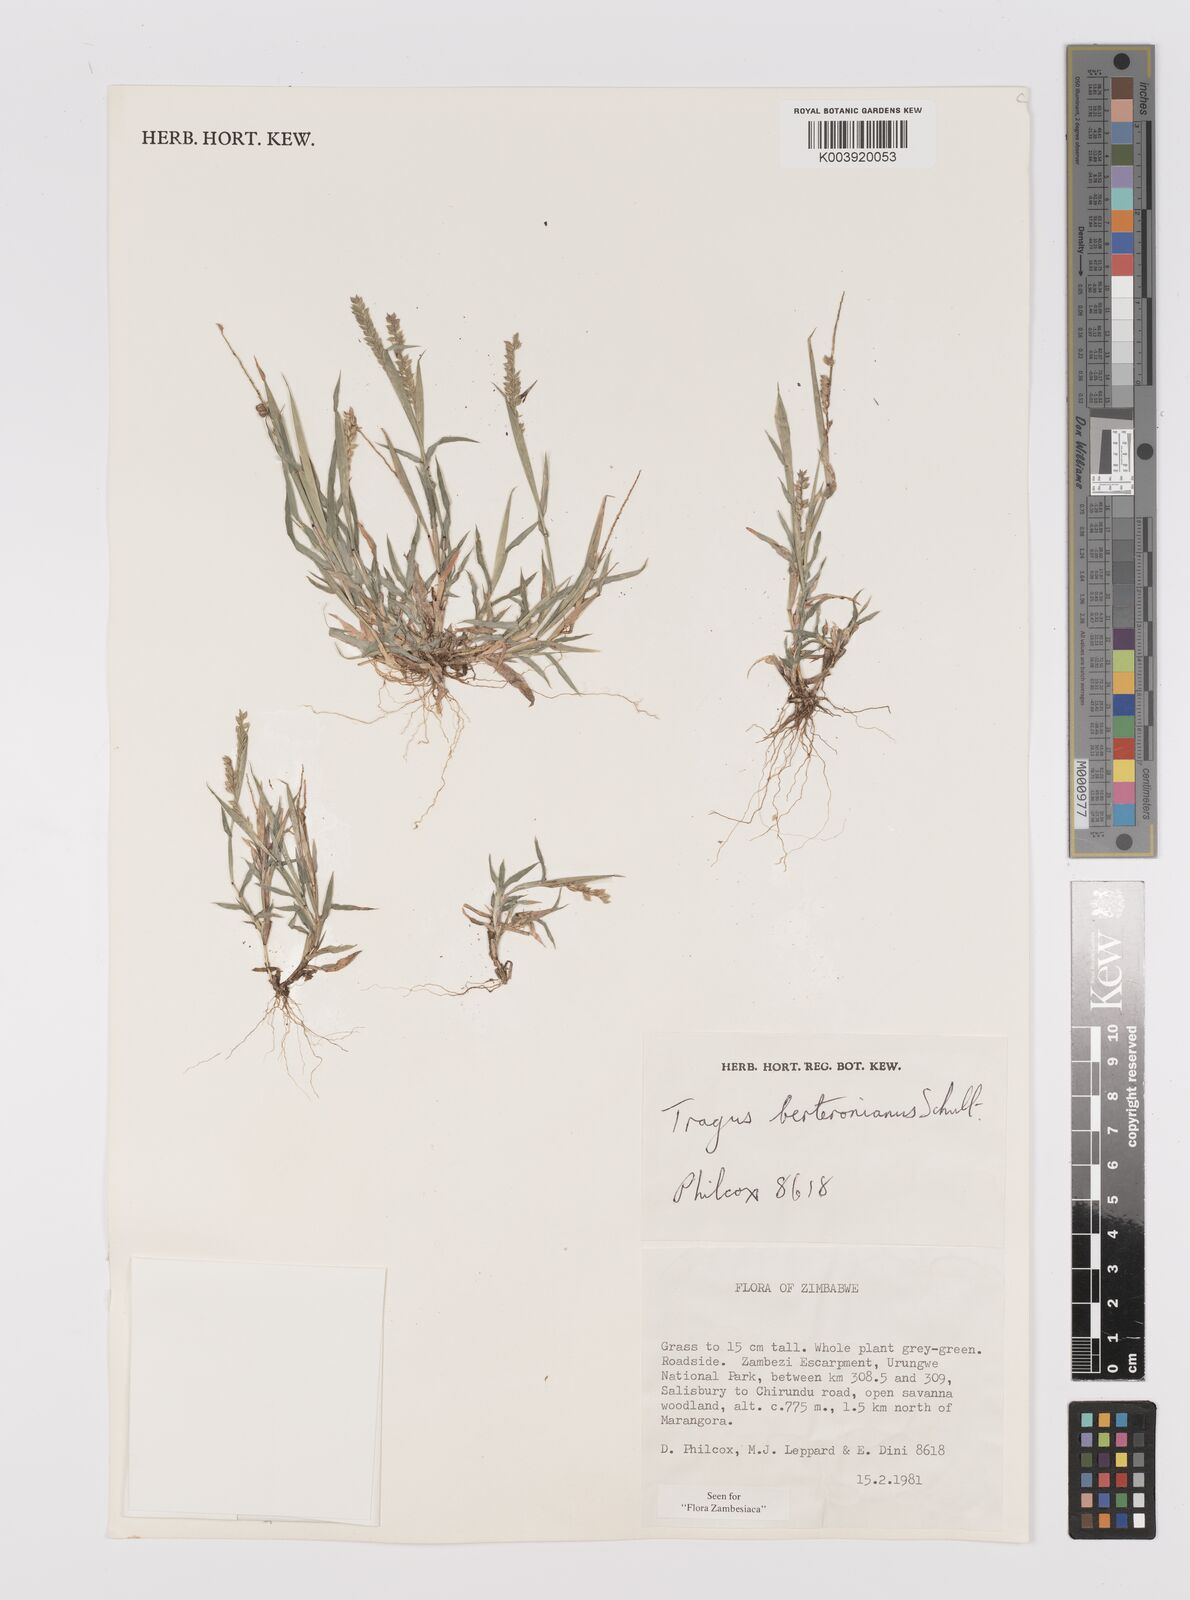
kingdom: Plantae
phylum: Tracheophyta
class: Liliopsida
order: Poales
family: Poaceae
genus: Tragus
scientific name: Tragus berteronianus
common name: African bur-grass
